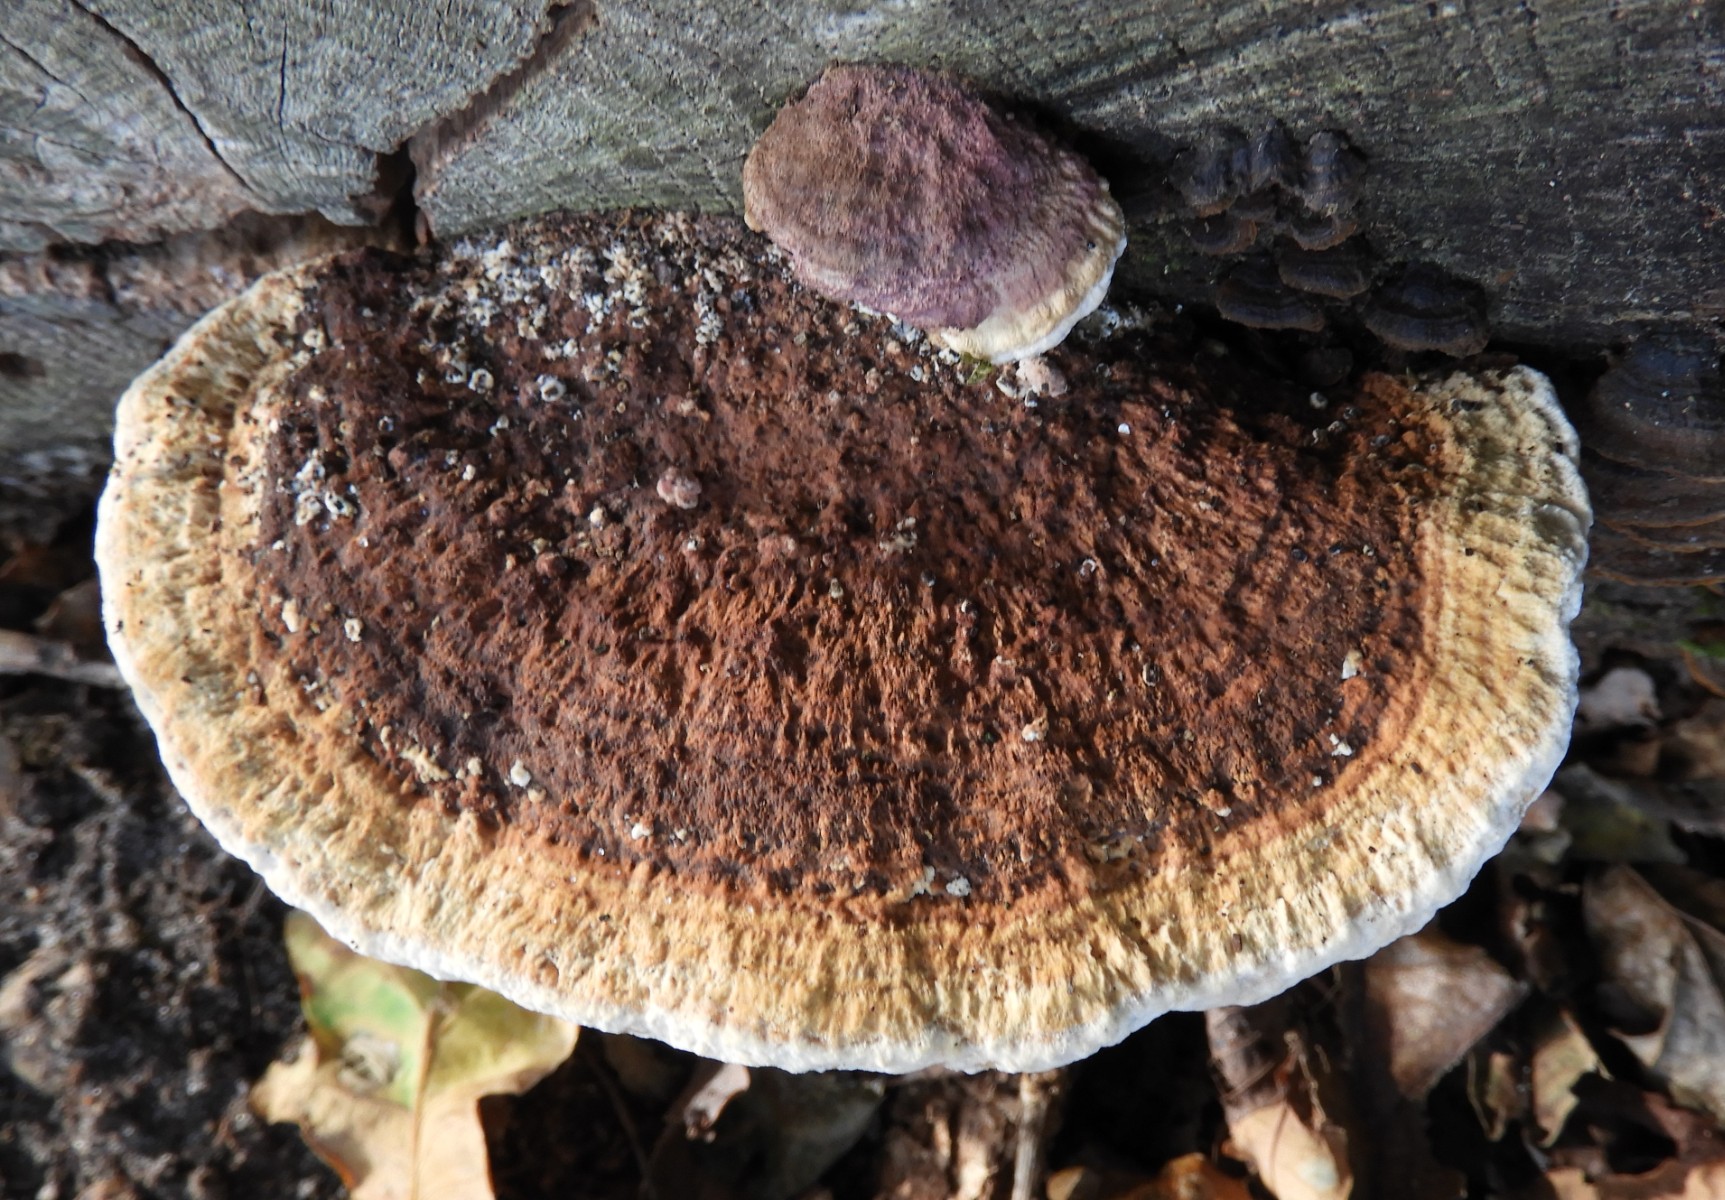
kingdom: Fungi
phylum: Basidiomycota
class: Agaricomycetes
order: Gloeophyllales
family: Gloeophyllaceae
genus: Gloeophyllum
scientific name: Gloeophyllum sepiarium
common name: fyrre-korkhat
